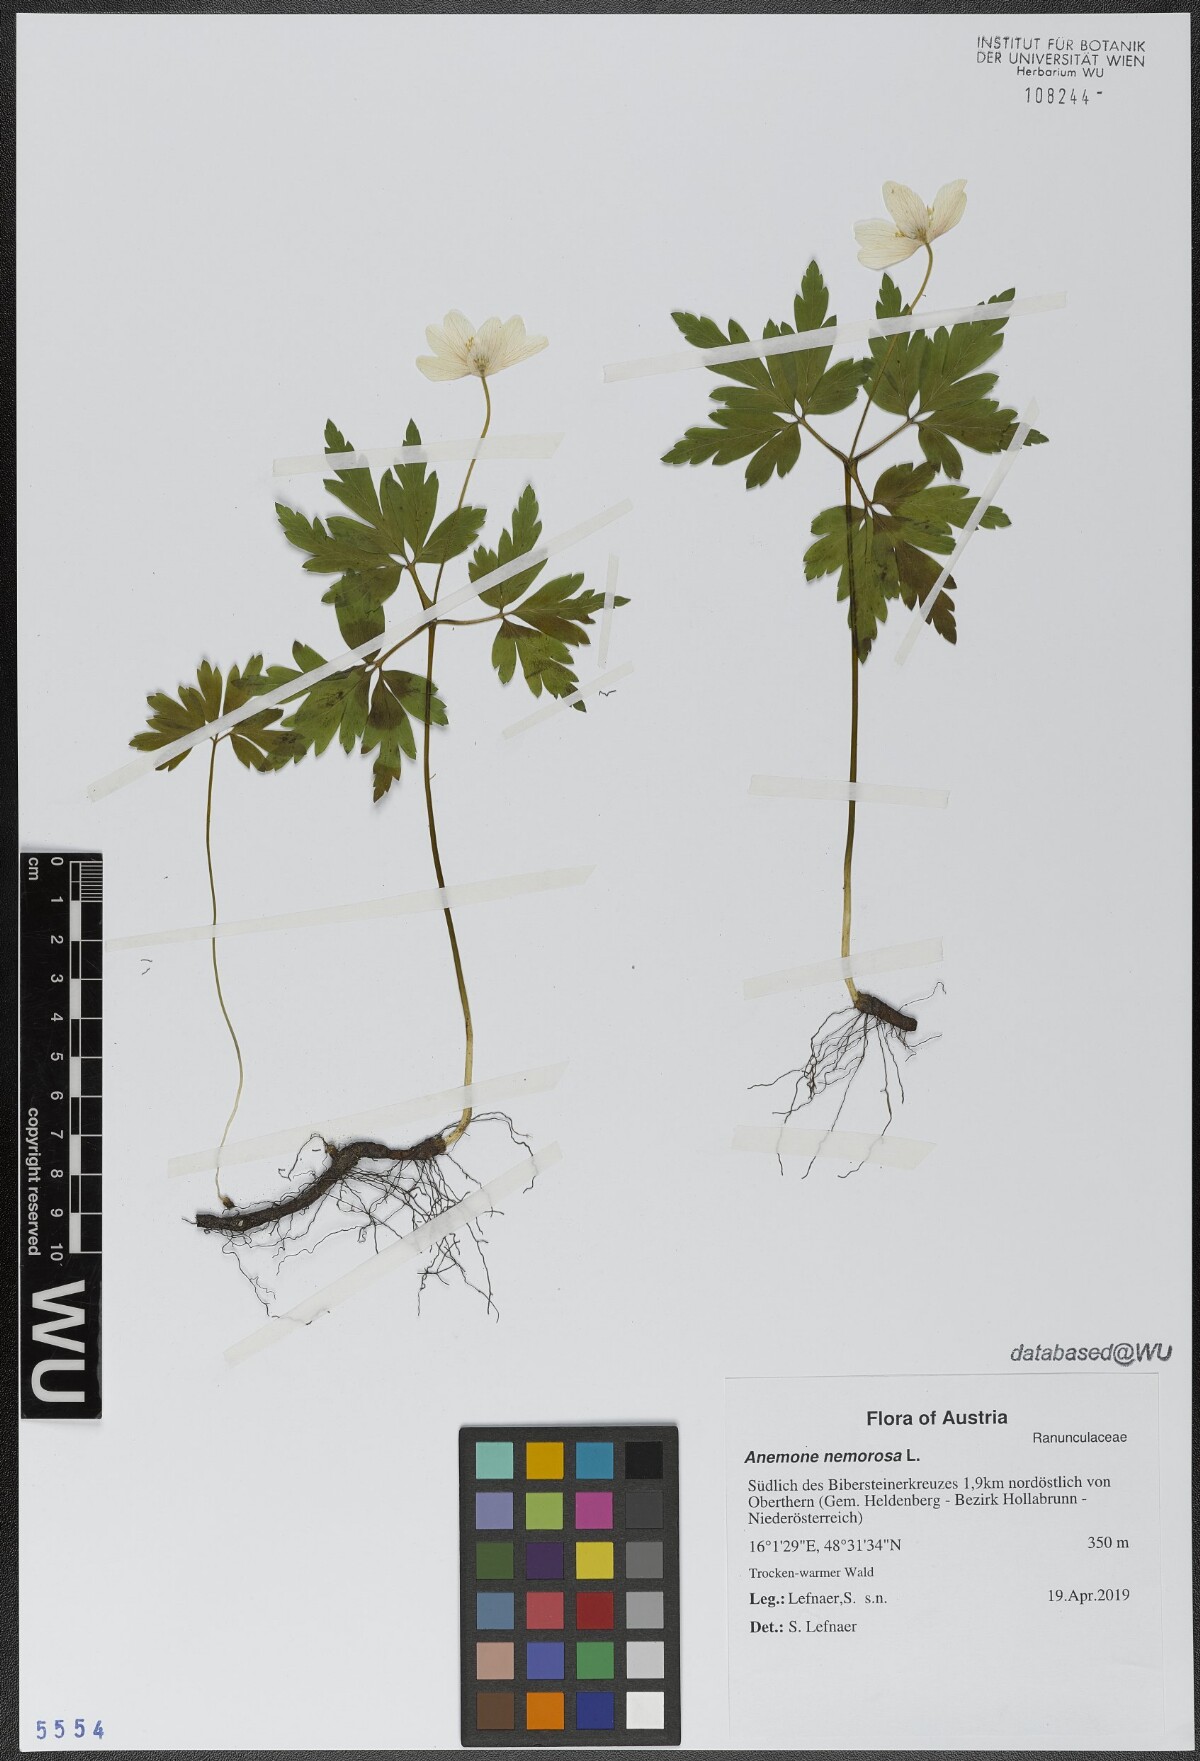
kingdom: Plantae
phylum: Tracheophyta
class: Magnoliopsida
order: Ranunculales
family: Ranunculaceae
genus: Anemone
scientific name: Anemone nemorosa
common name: Wood anemone
